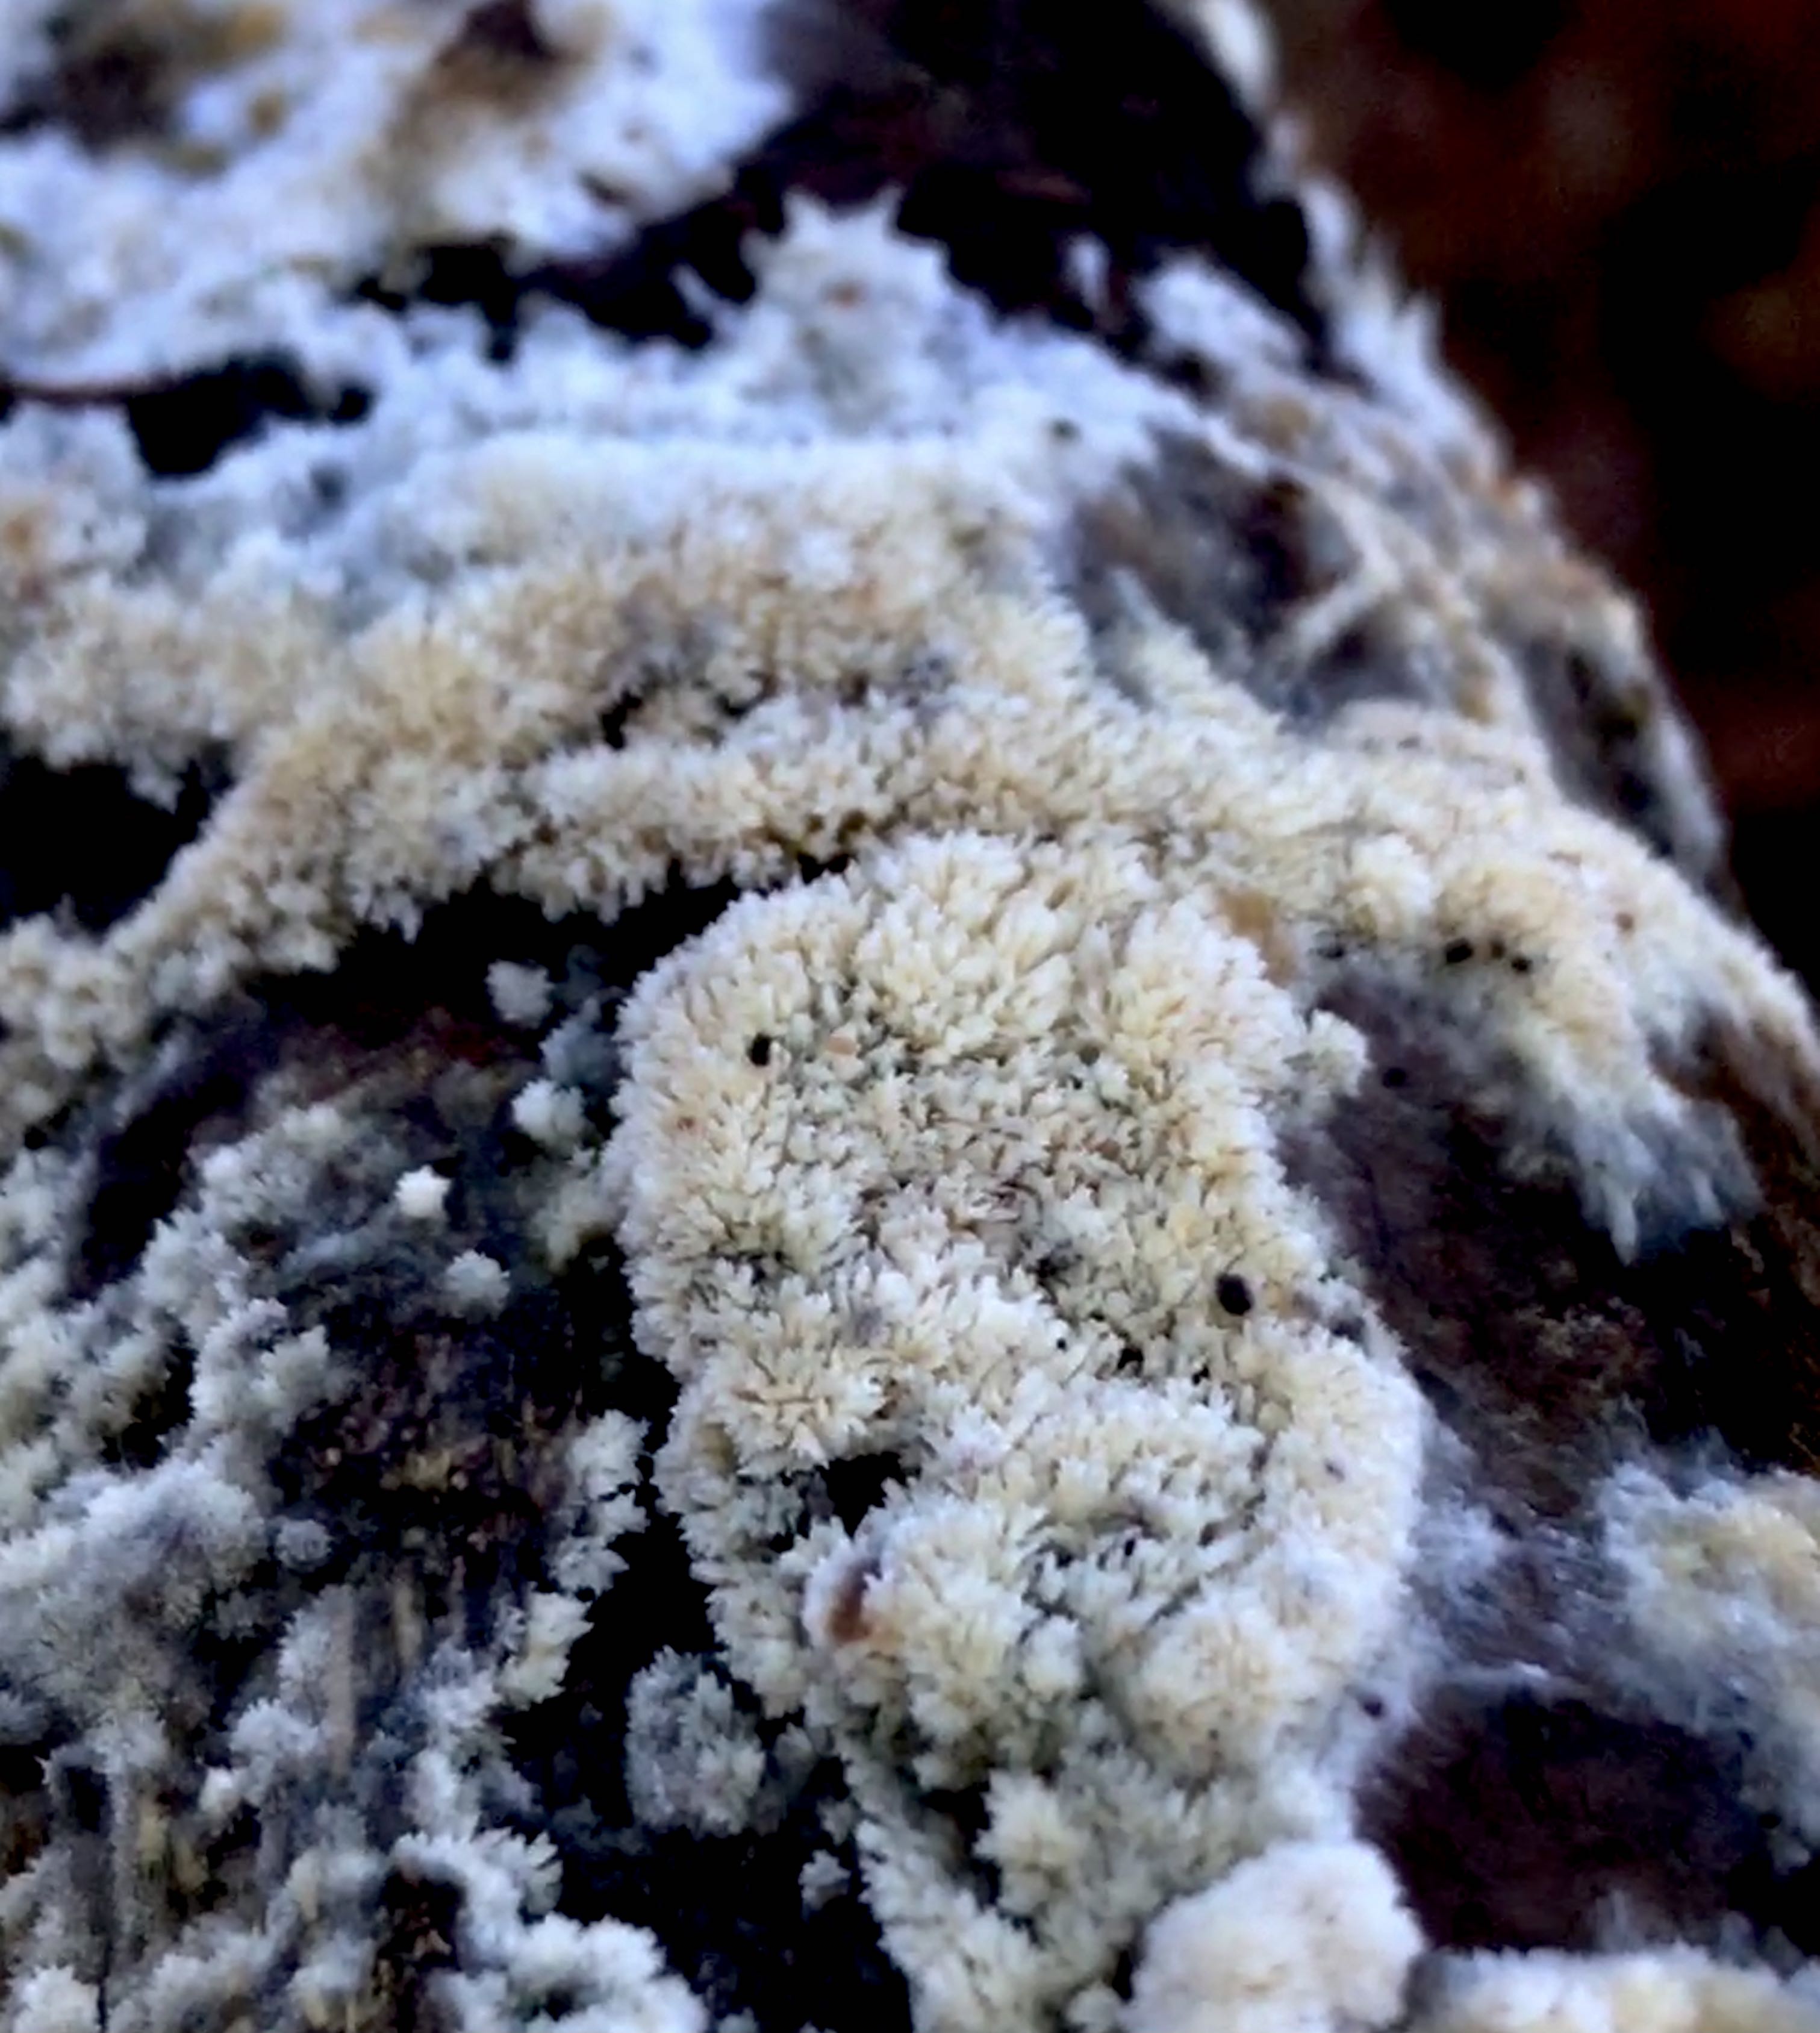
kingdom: Fungi
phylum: Basidiomycota
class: Agaricomycetes
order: Hymenochaetales
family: Schizoporaceae
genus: Schizopora
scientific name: Schizopora paradoxa
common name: hvid tandsvamp
